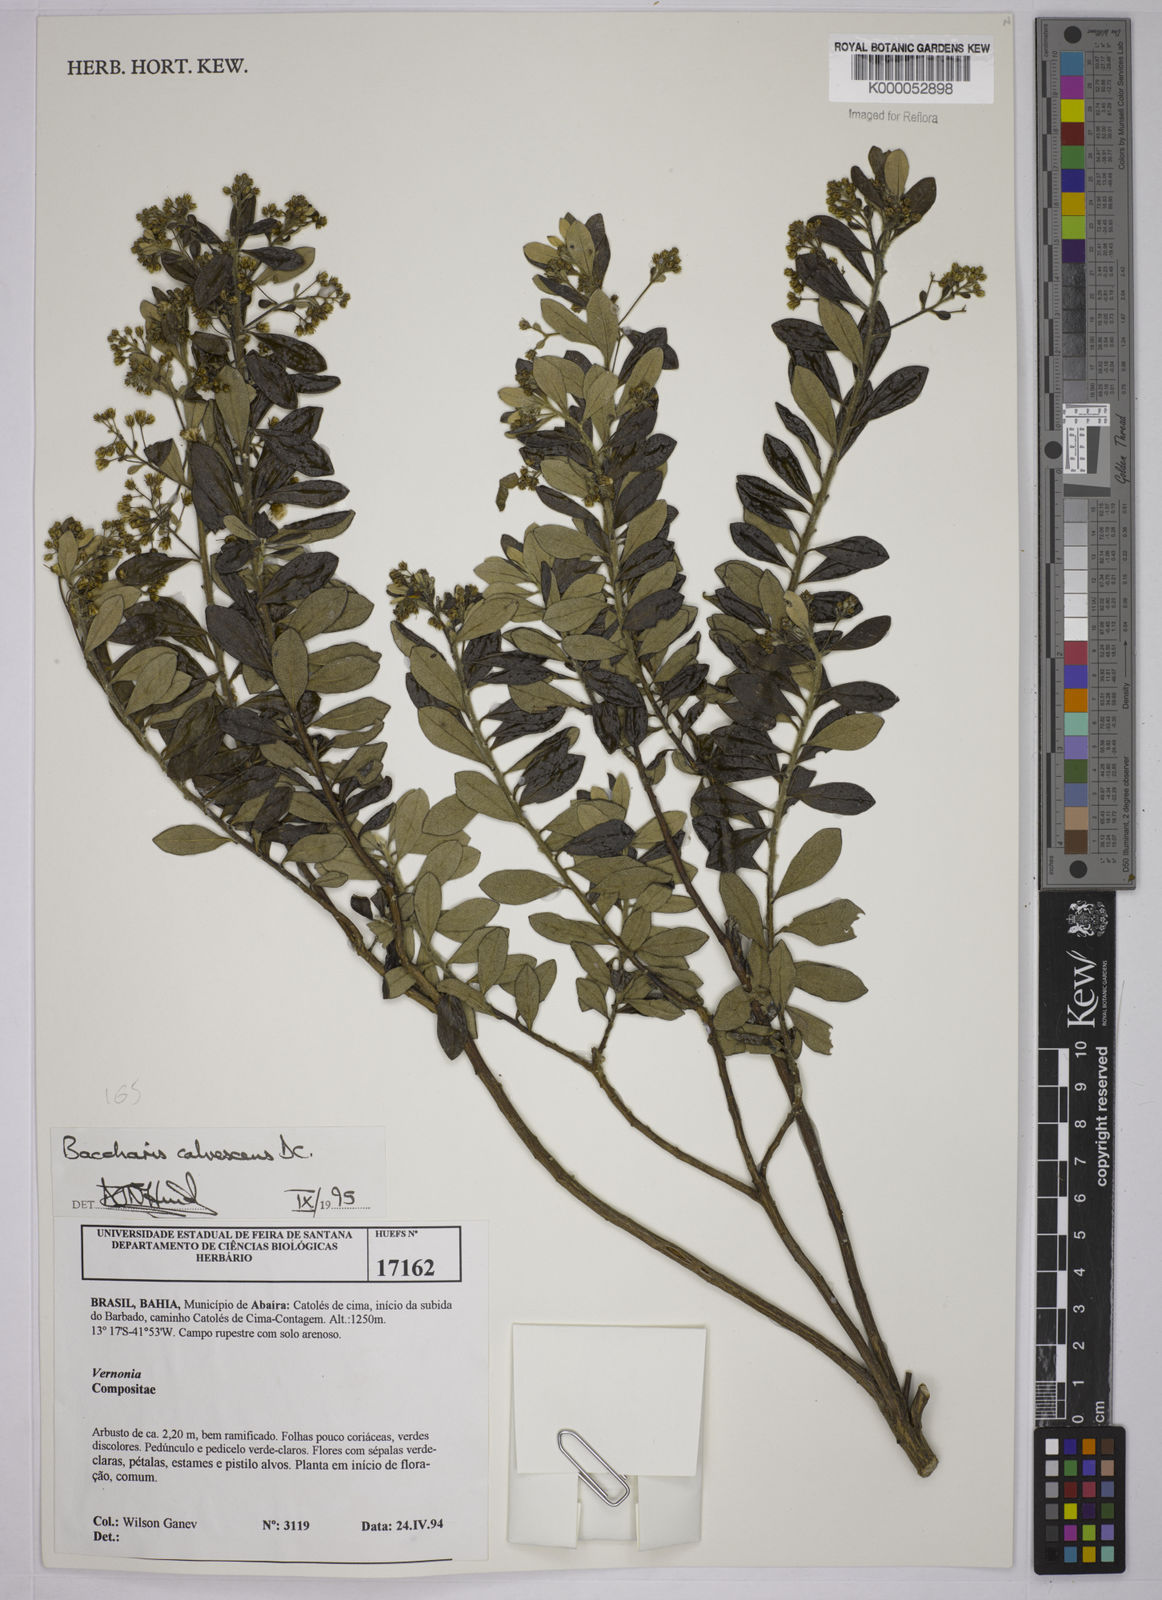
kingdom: Plantae
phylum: Tracheophyta
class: Magnoliopsida
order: Asterales
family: Asteraceae
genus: Baccharis
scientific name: Baccharis calvescens
